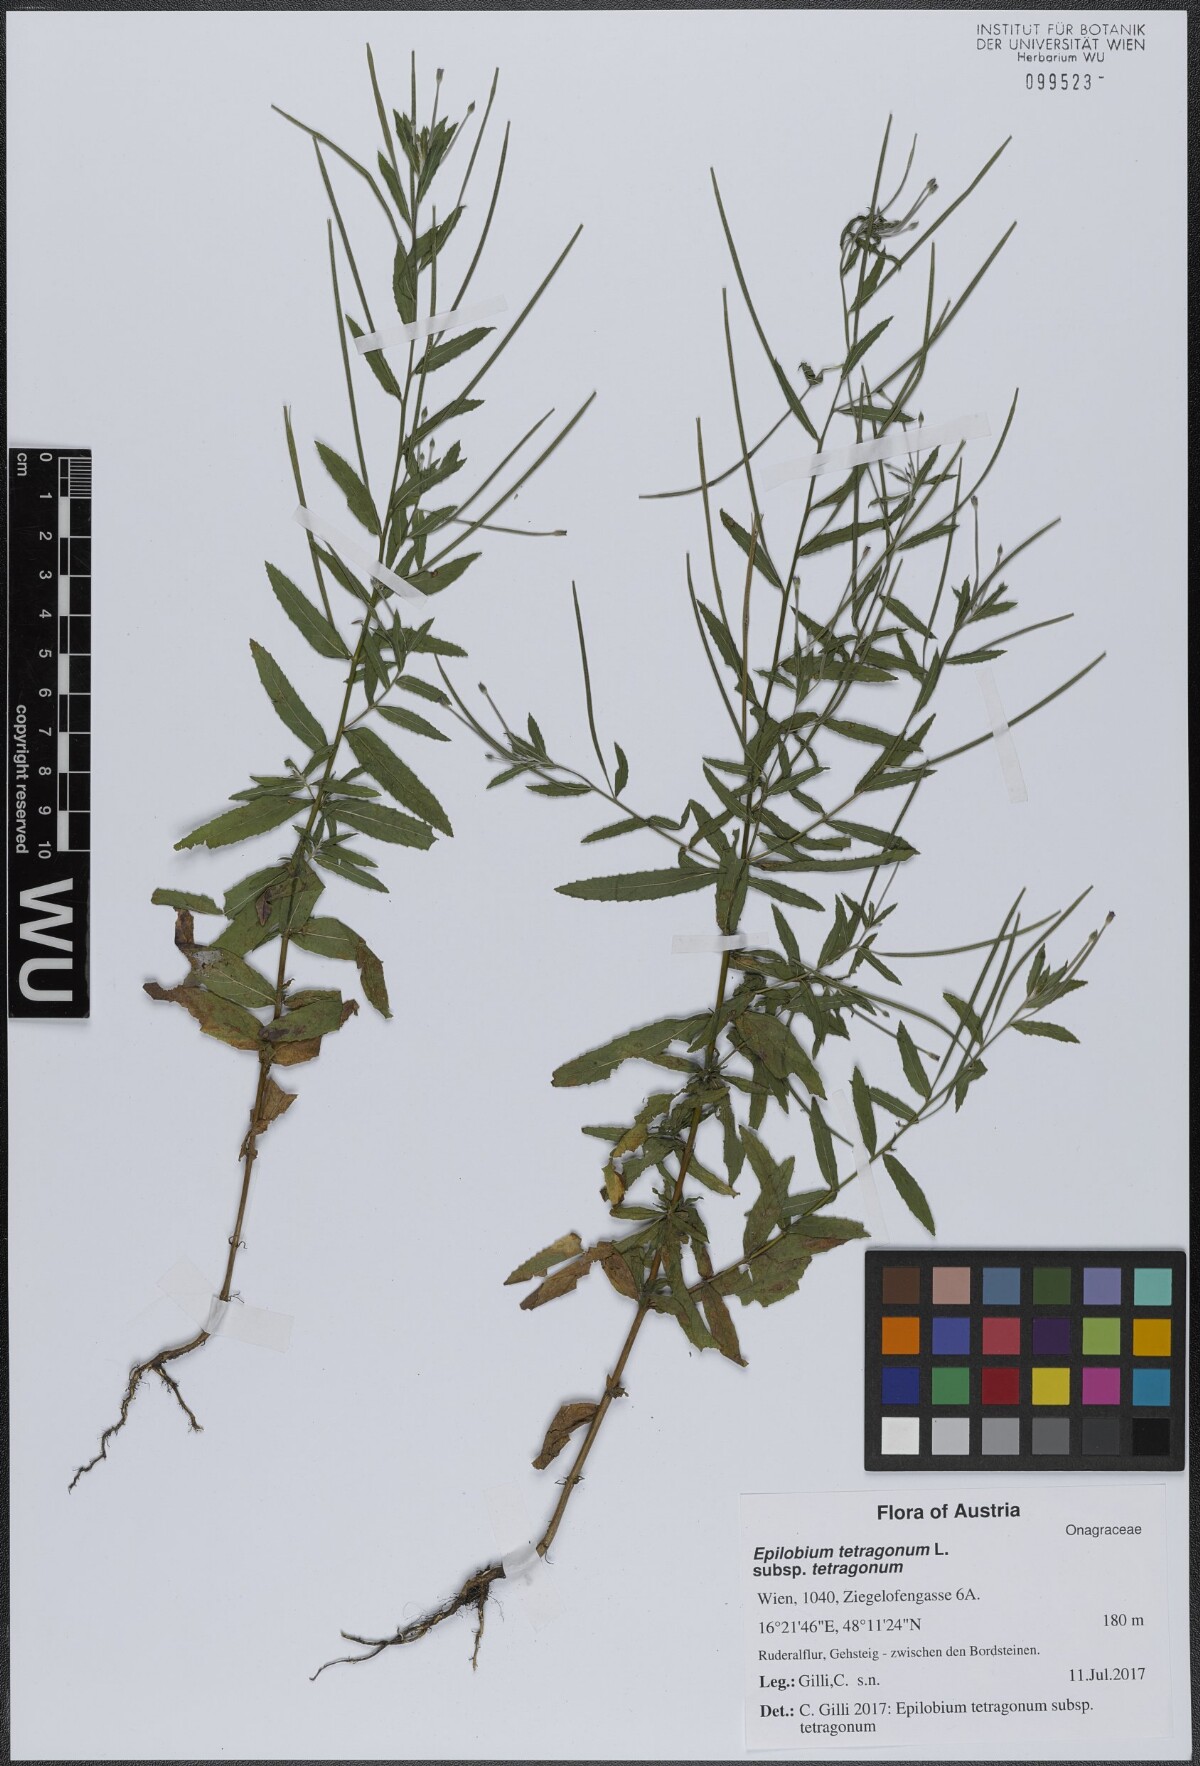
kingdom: Plantae
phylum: Tracheophyta
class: Magnoliopsida
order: Myrtales
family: Onagraceae
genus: Epilobium
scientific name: Epilobium tetragonum
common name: Square-stemmed willowherb
